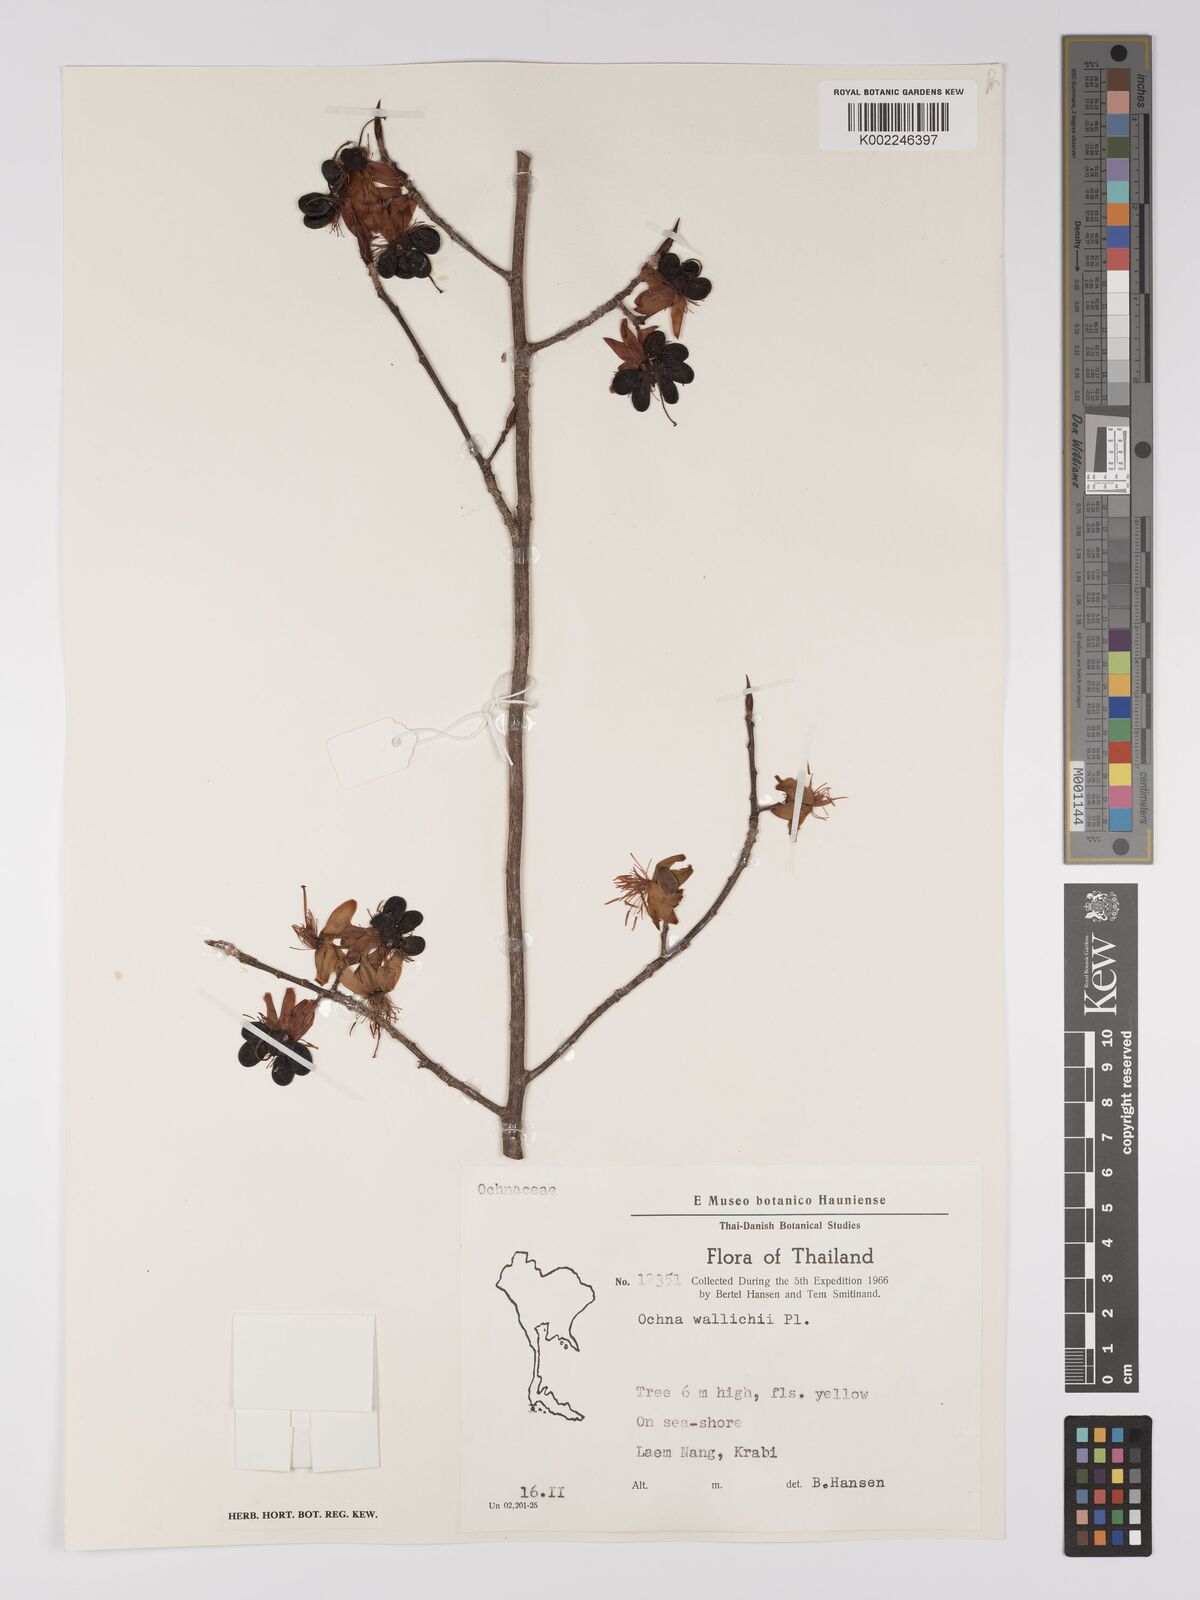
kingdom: Plantae
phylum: Tracheophyta
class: Magnoliopsida
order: Malpighiales
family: Ochnaceae
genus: Ochna
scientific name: Ochna integerrima
